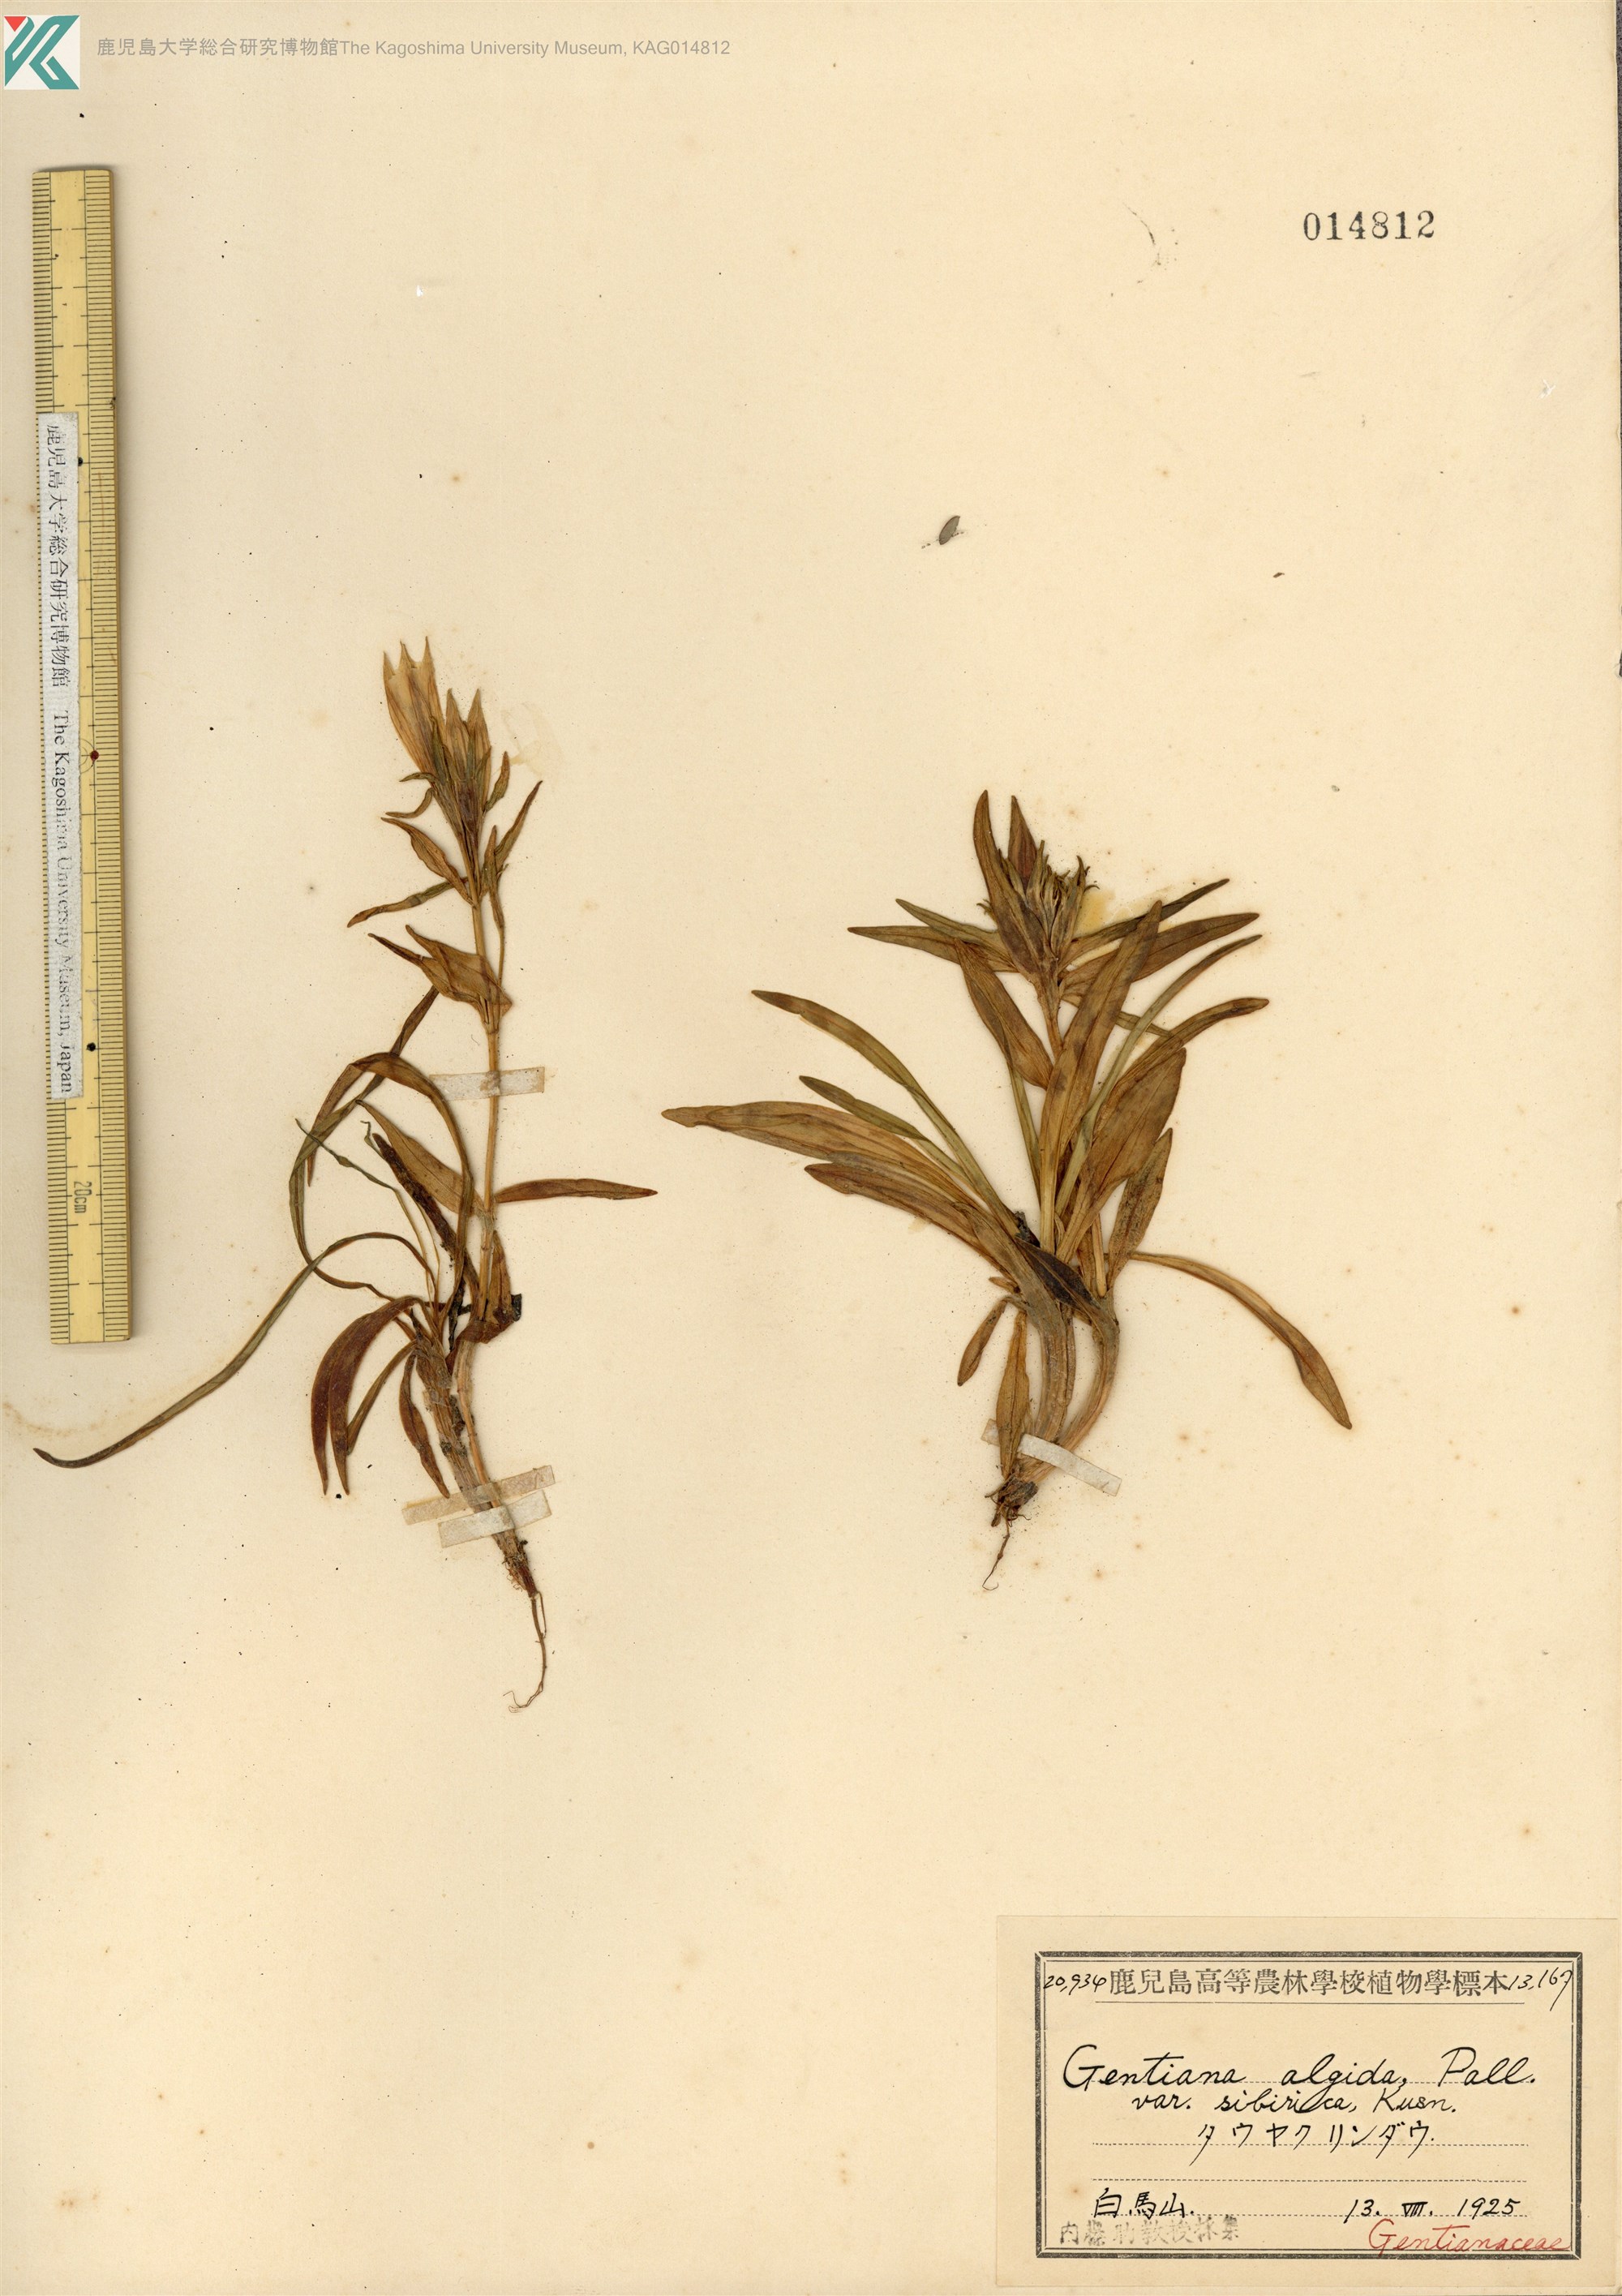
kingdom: Plantae
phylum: Tracheophyta
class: Magnoliopsida
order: Gentianales
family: Gentianaceae
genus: Gentiana
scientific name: Gentiana algida
